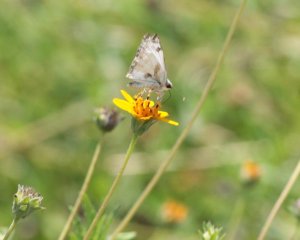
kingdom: Animalia
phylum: Arthropoda
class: Insecta
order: Lepidoptera
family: Hesperiidae
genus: Heliopetes
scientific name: Heliopetes laviana
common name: Laviana White-Skipper
